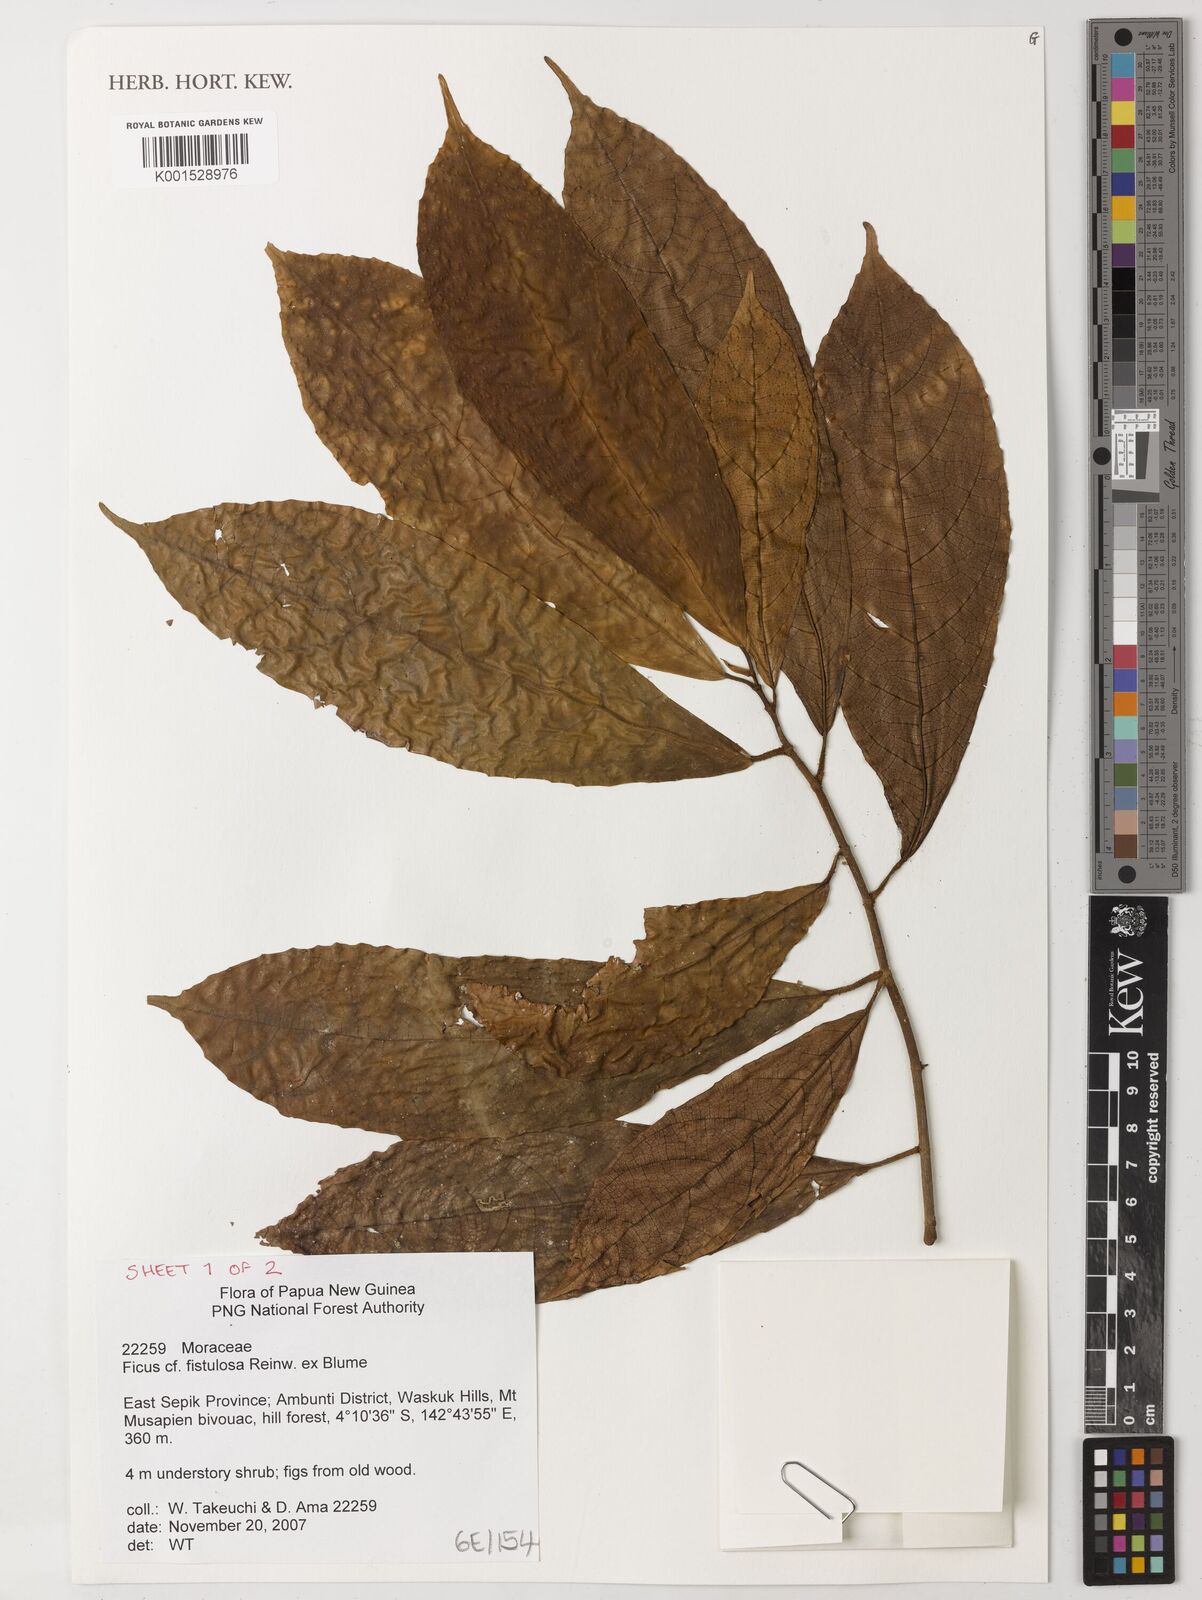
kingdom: Plantae
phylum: Tracheophyta
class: Magnoliopsida
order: Rosales
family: Moraceae
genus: Ficus
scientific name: Ficus fistulosa
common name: Figs
